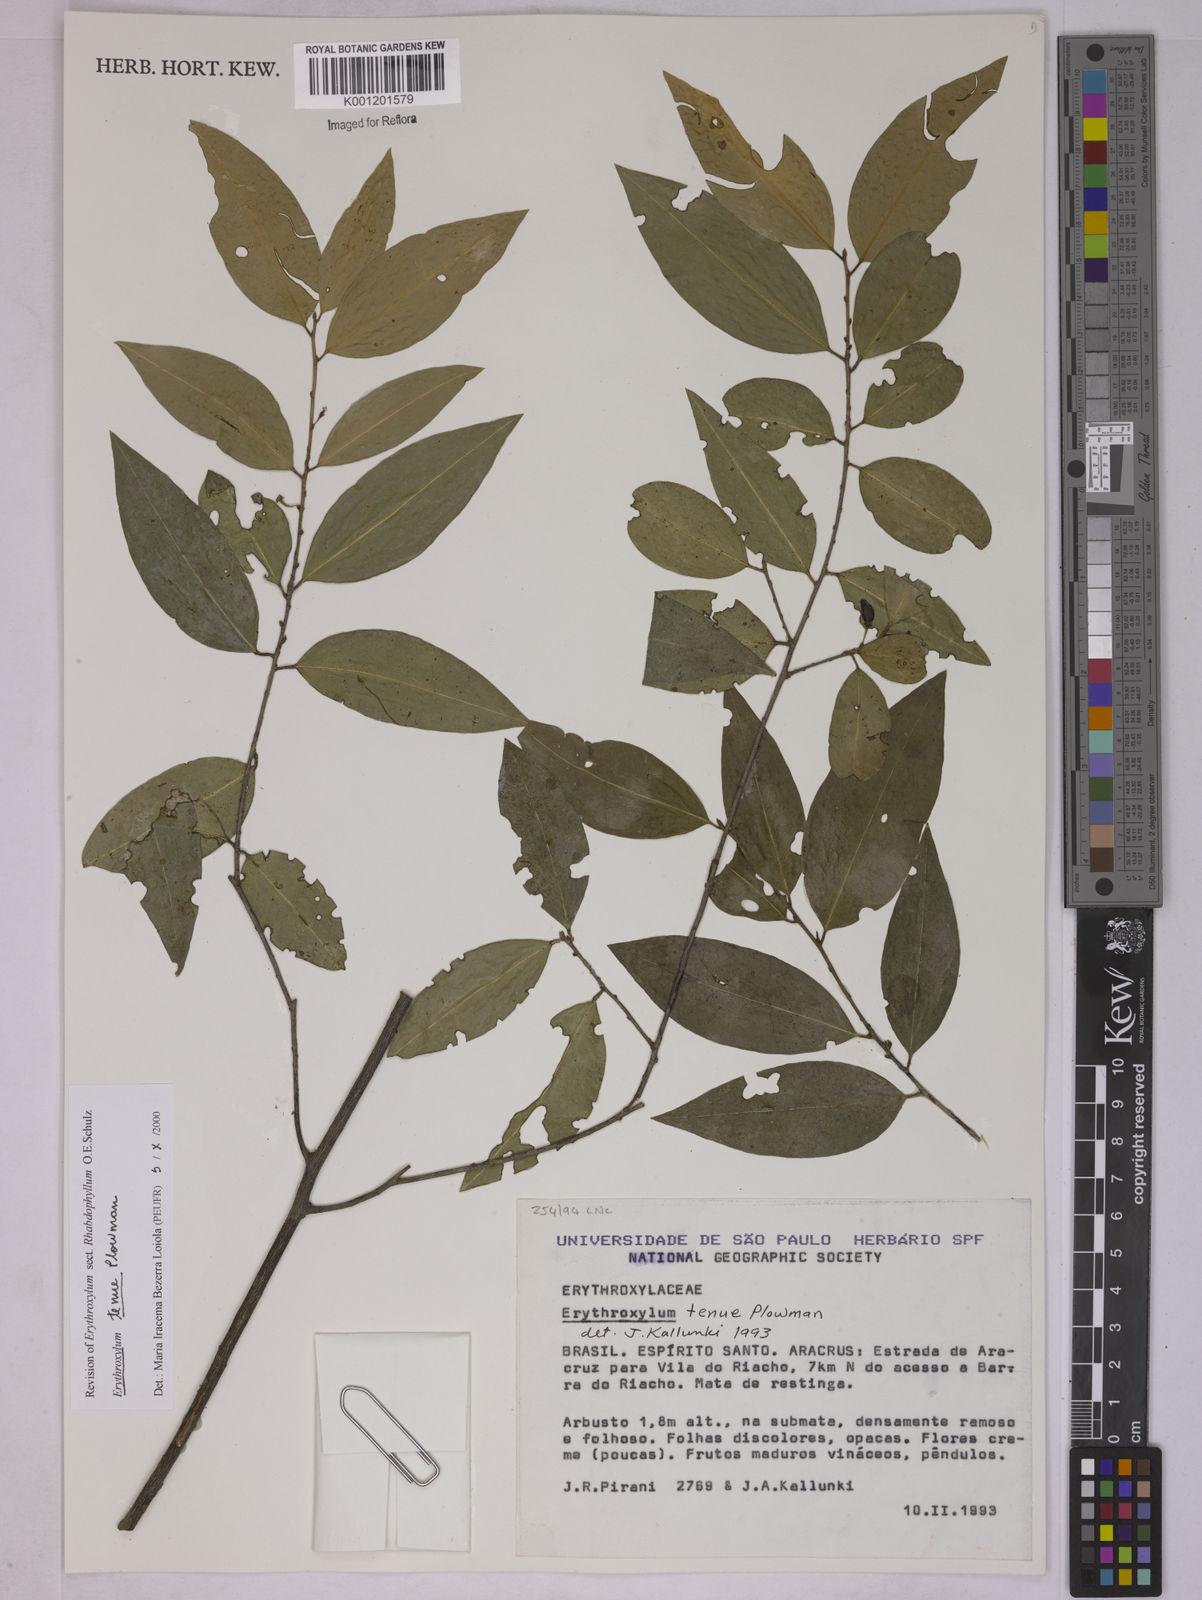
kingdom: Plantae
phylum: Tracheophyta
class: Magnoliopsida
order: Malpighiales
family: Erythroxylaceae
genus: Erythroxylum
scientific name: Erythroxylum tenue
